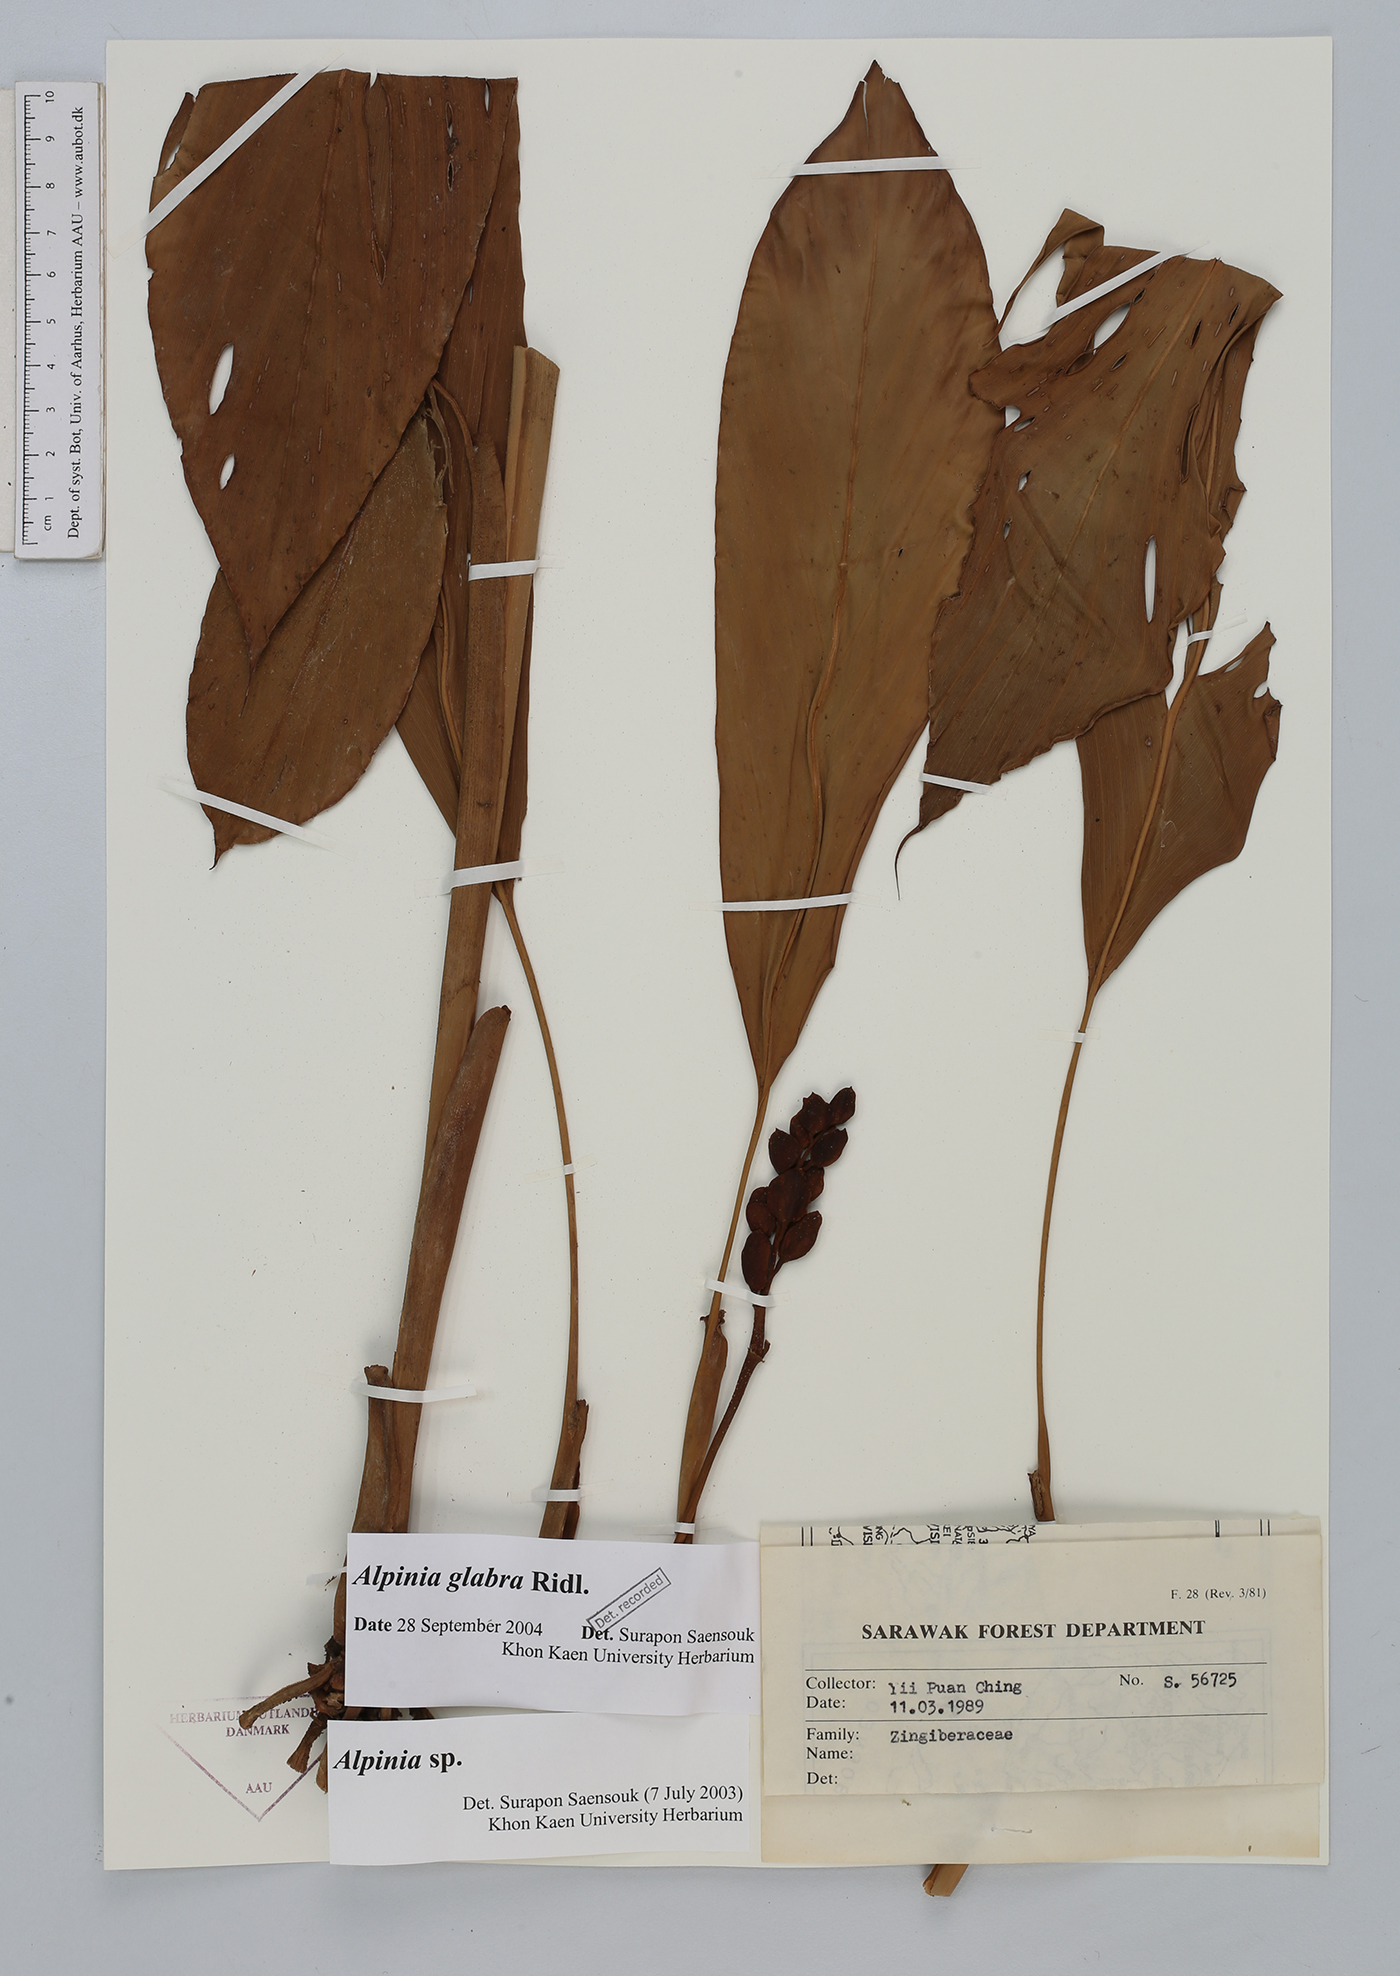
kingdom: Plantae
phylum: Tracheophyta
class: Liliopsida
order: Zingiberales
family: Zingiberaceae
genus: Alpinia
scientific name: Alpinia glabra
